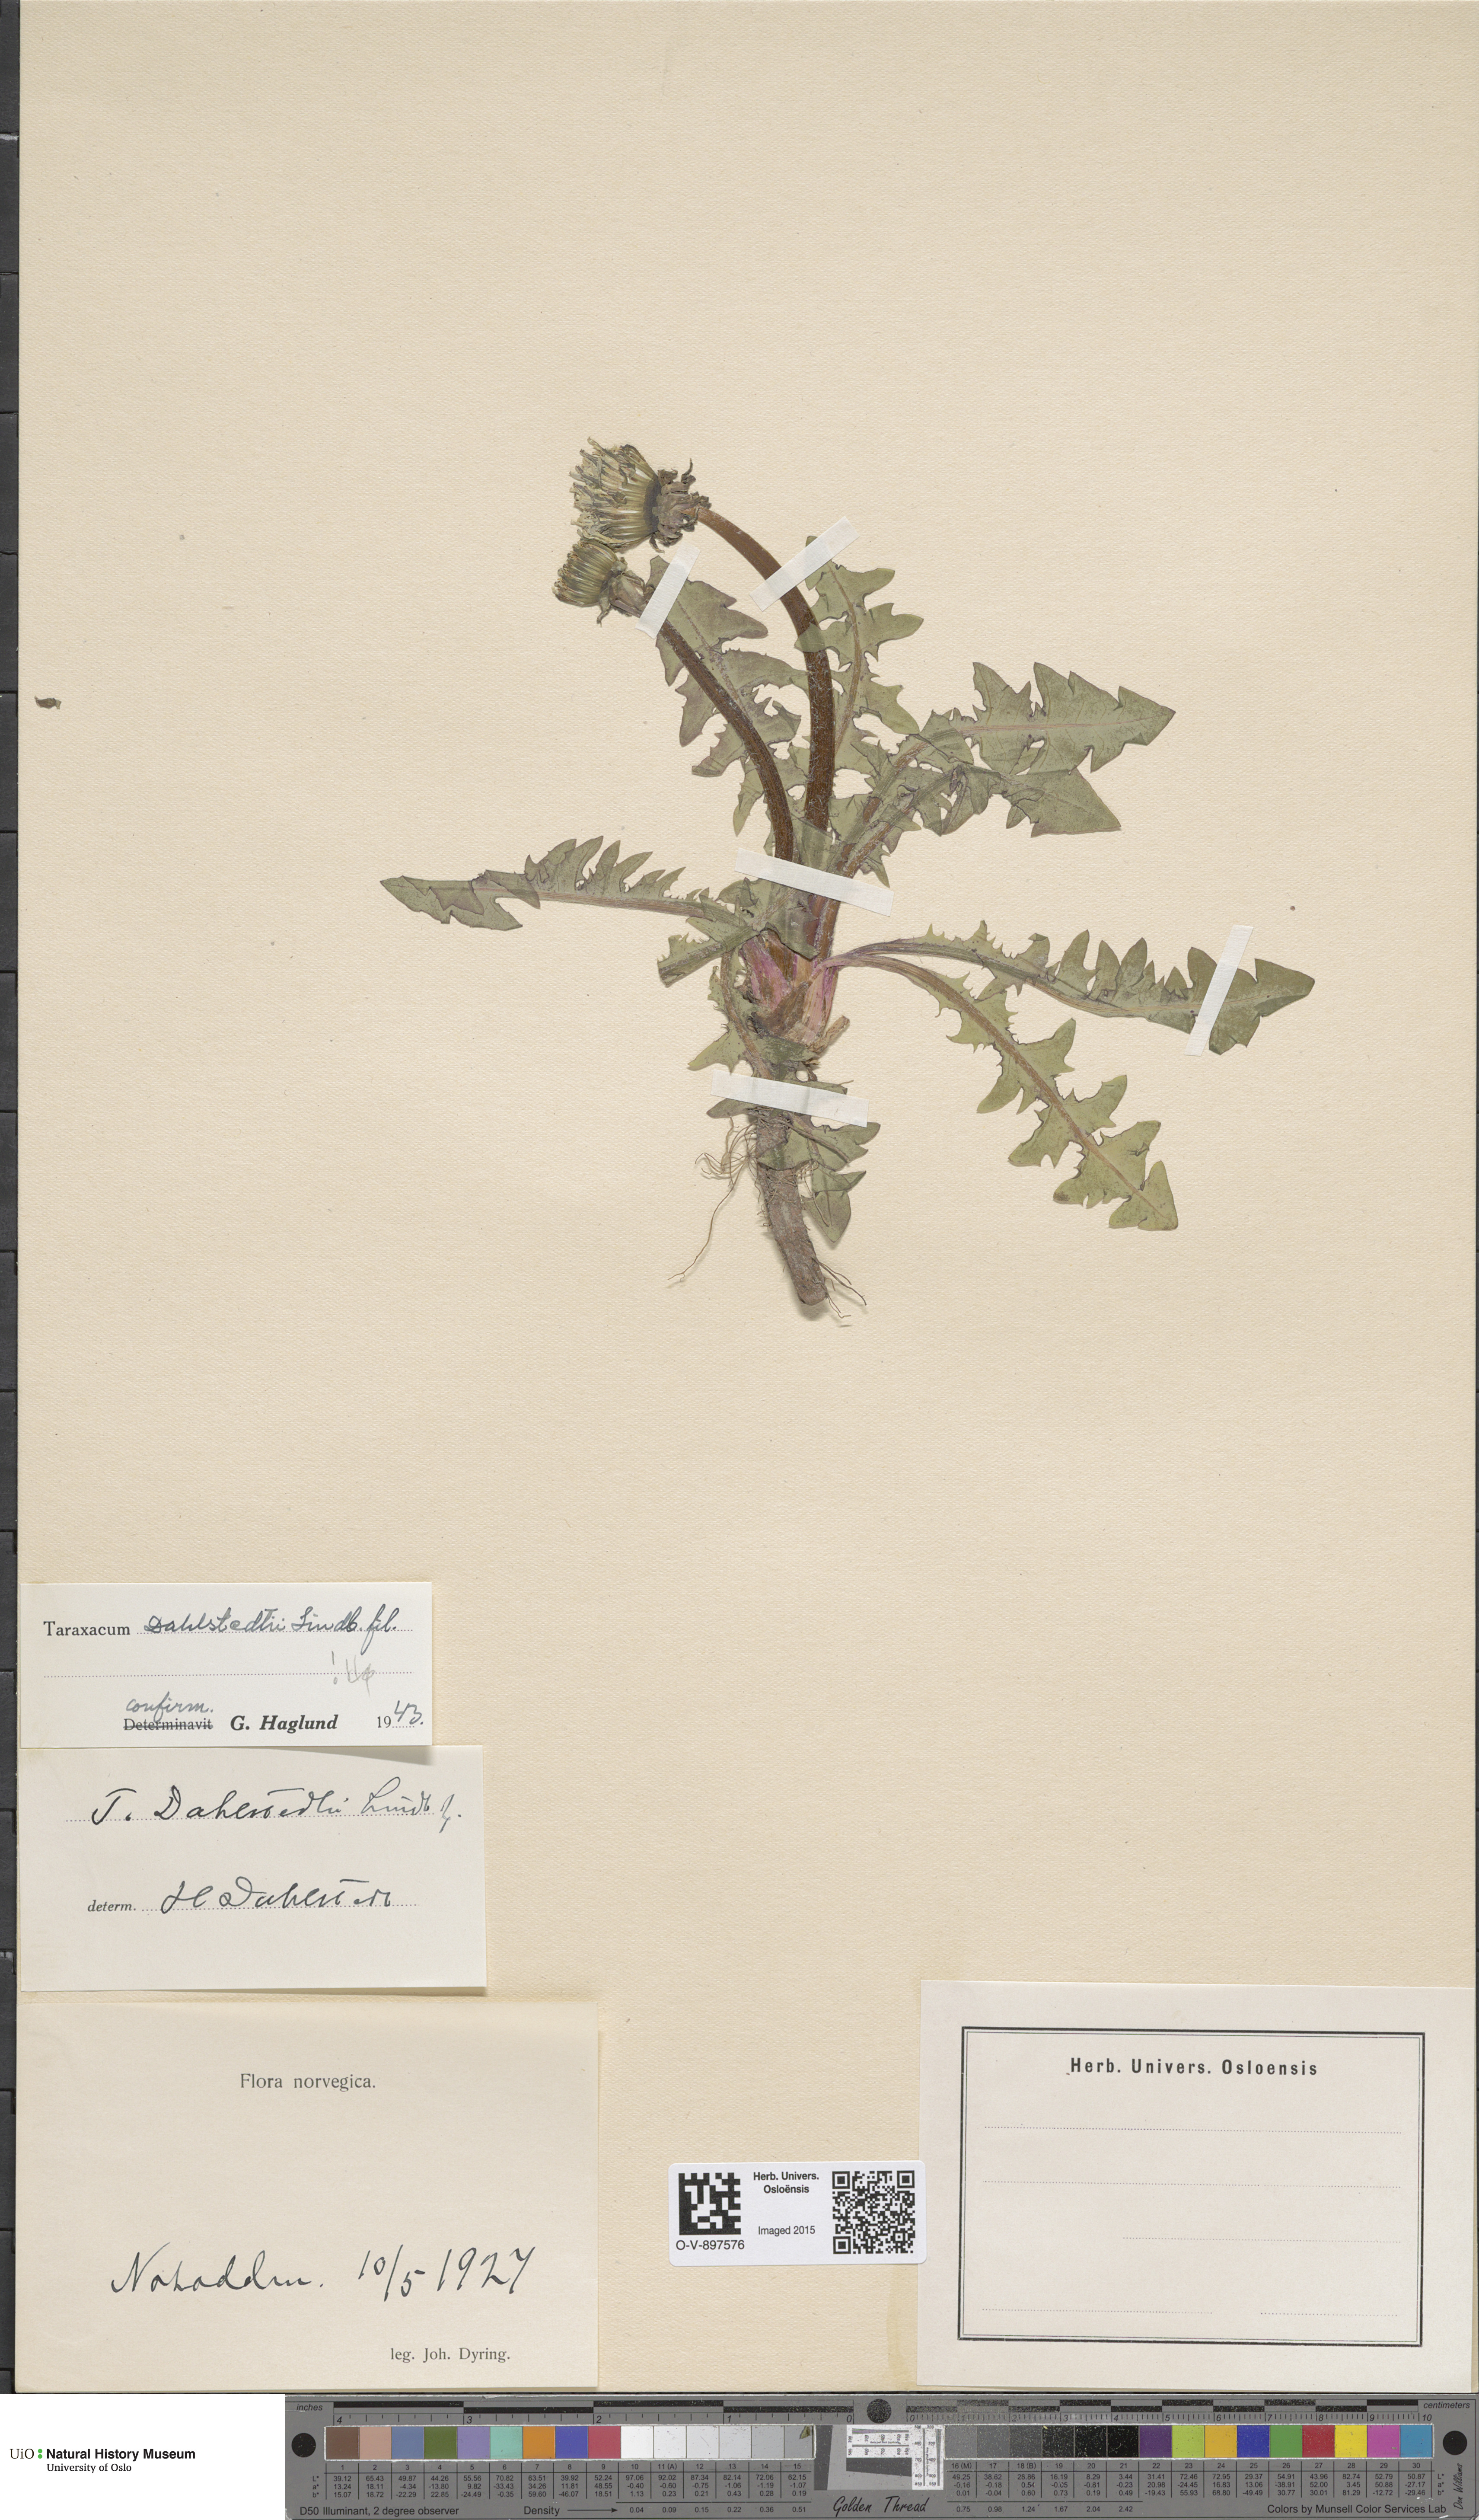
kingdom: Plantae
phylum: Tracheophyta
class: Magnoliopsida
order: Asterales
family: Asteraceae
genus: Taraxacum
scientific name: Taraxacum stenoglossum
